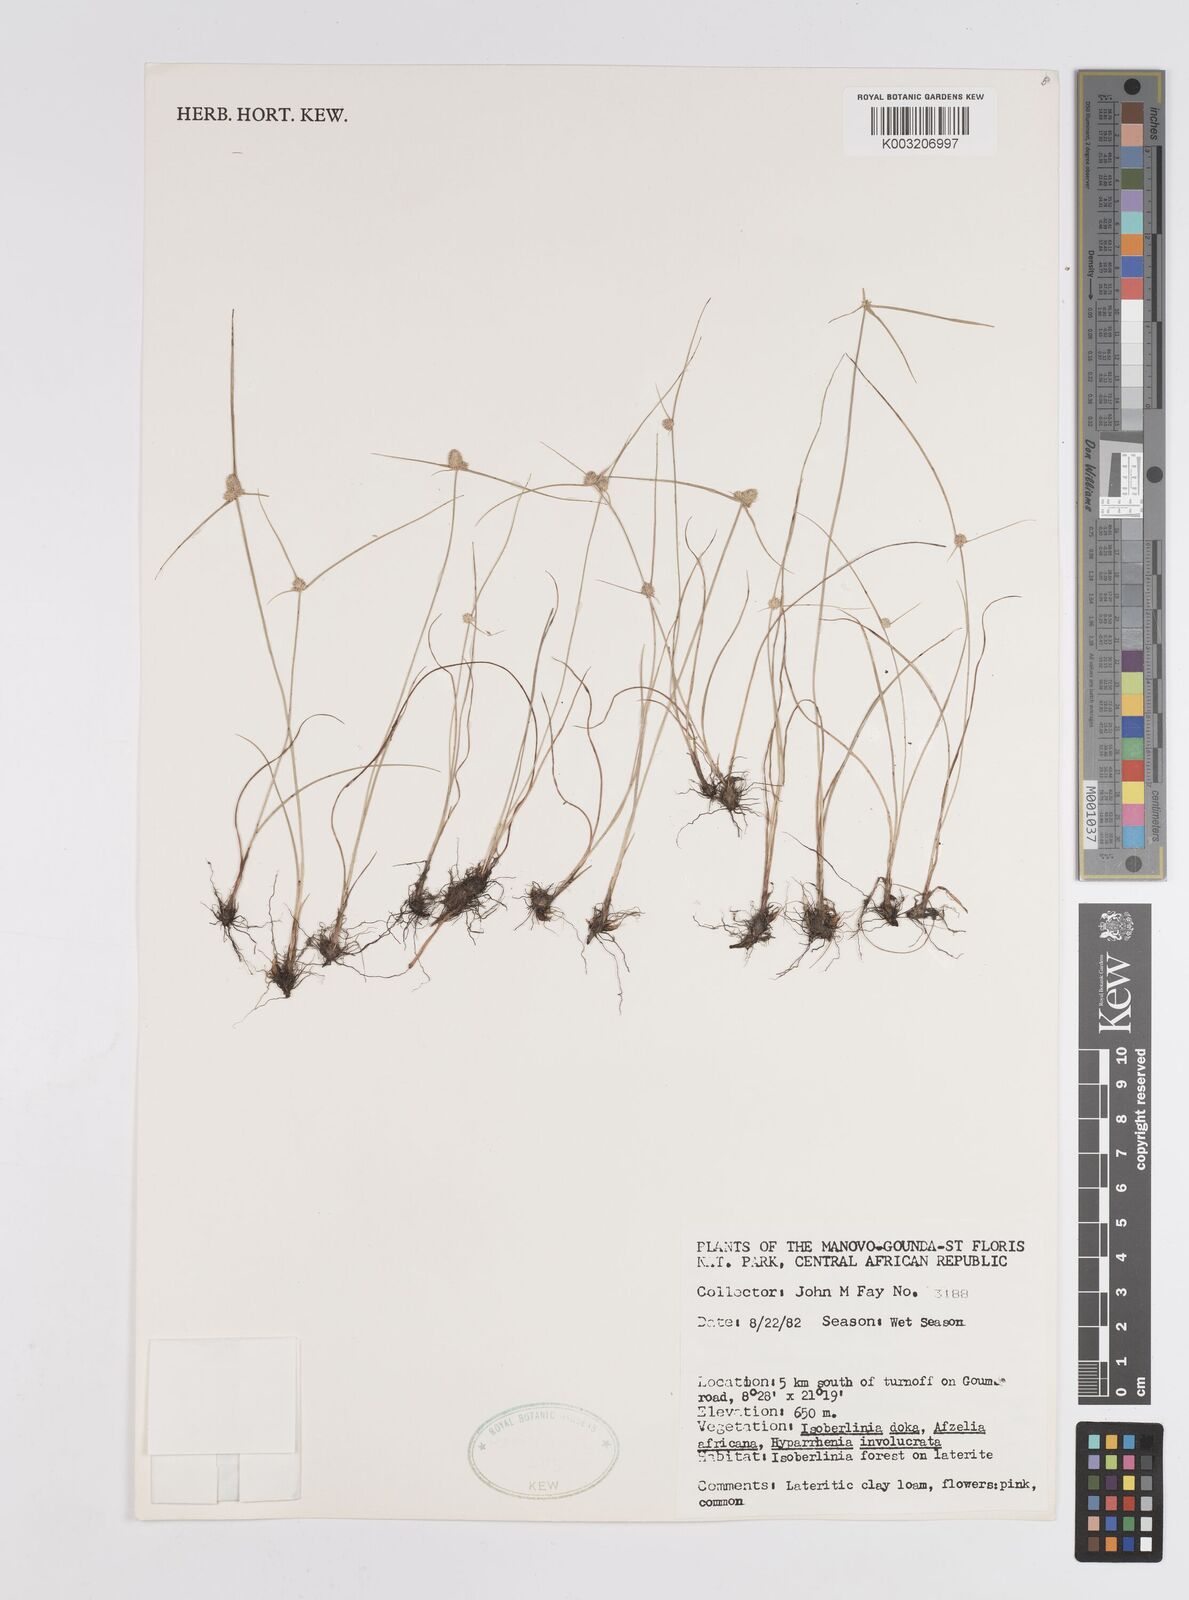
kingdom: Plantae
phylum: Tracheophyta
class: Liliopsida
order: Poales
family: Cyperaceae
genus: Cyperus
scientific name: Cyperus
